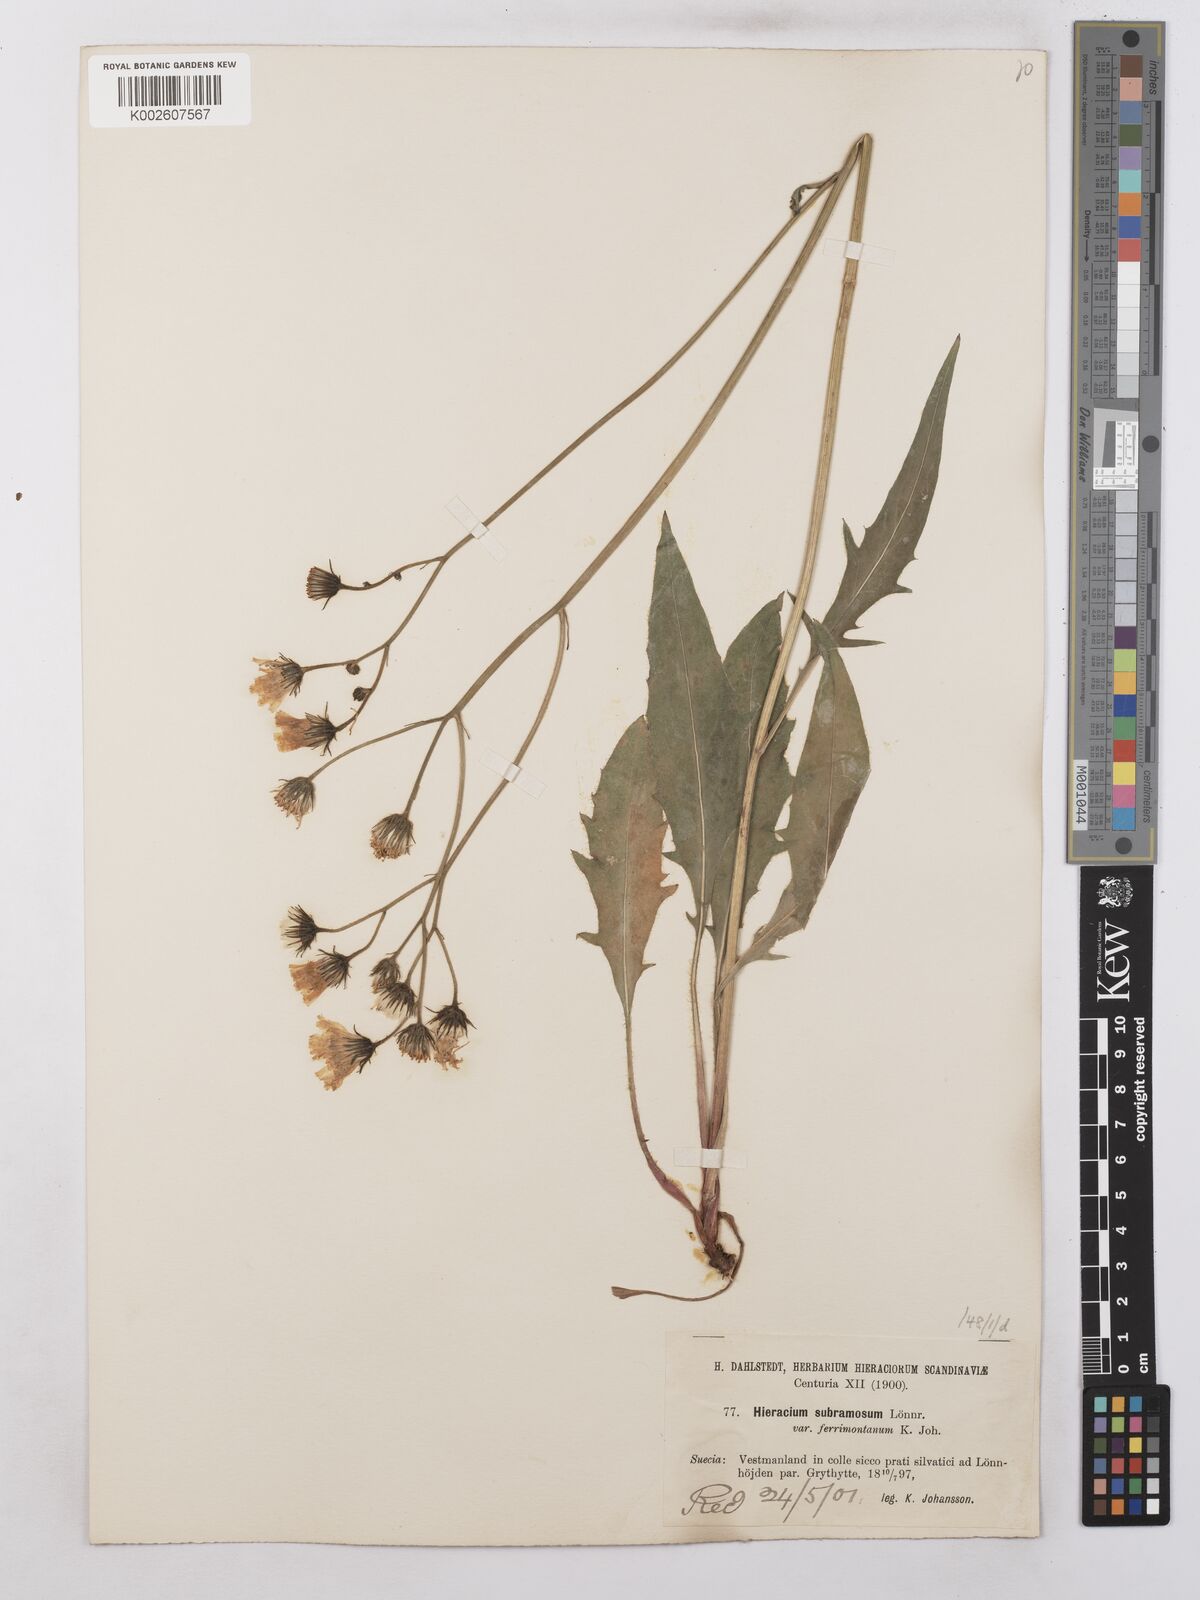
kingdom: Plantae
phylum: Tracheophyta
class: Magnoliopsida
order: Asterales
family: Asteraceae
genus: Hieracium
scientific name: Hieracium subramosum
